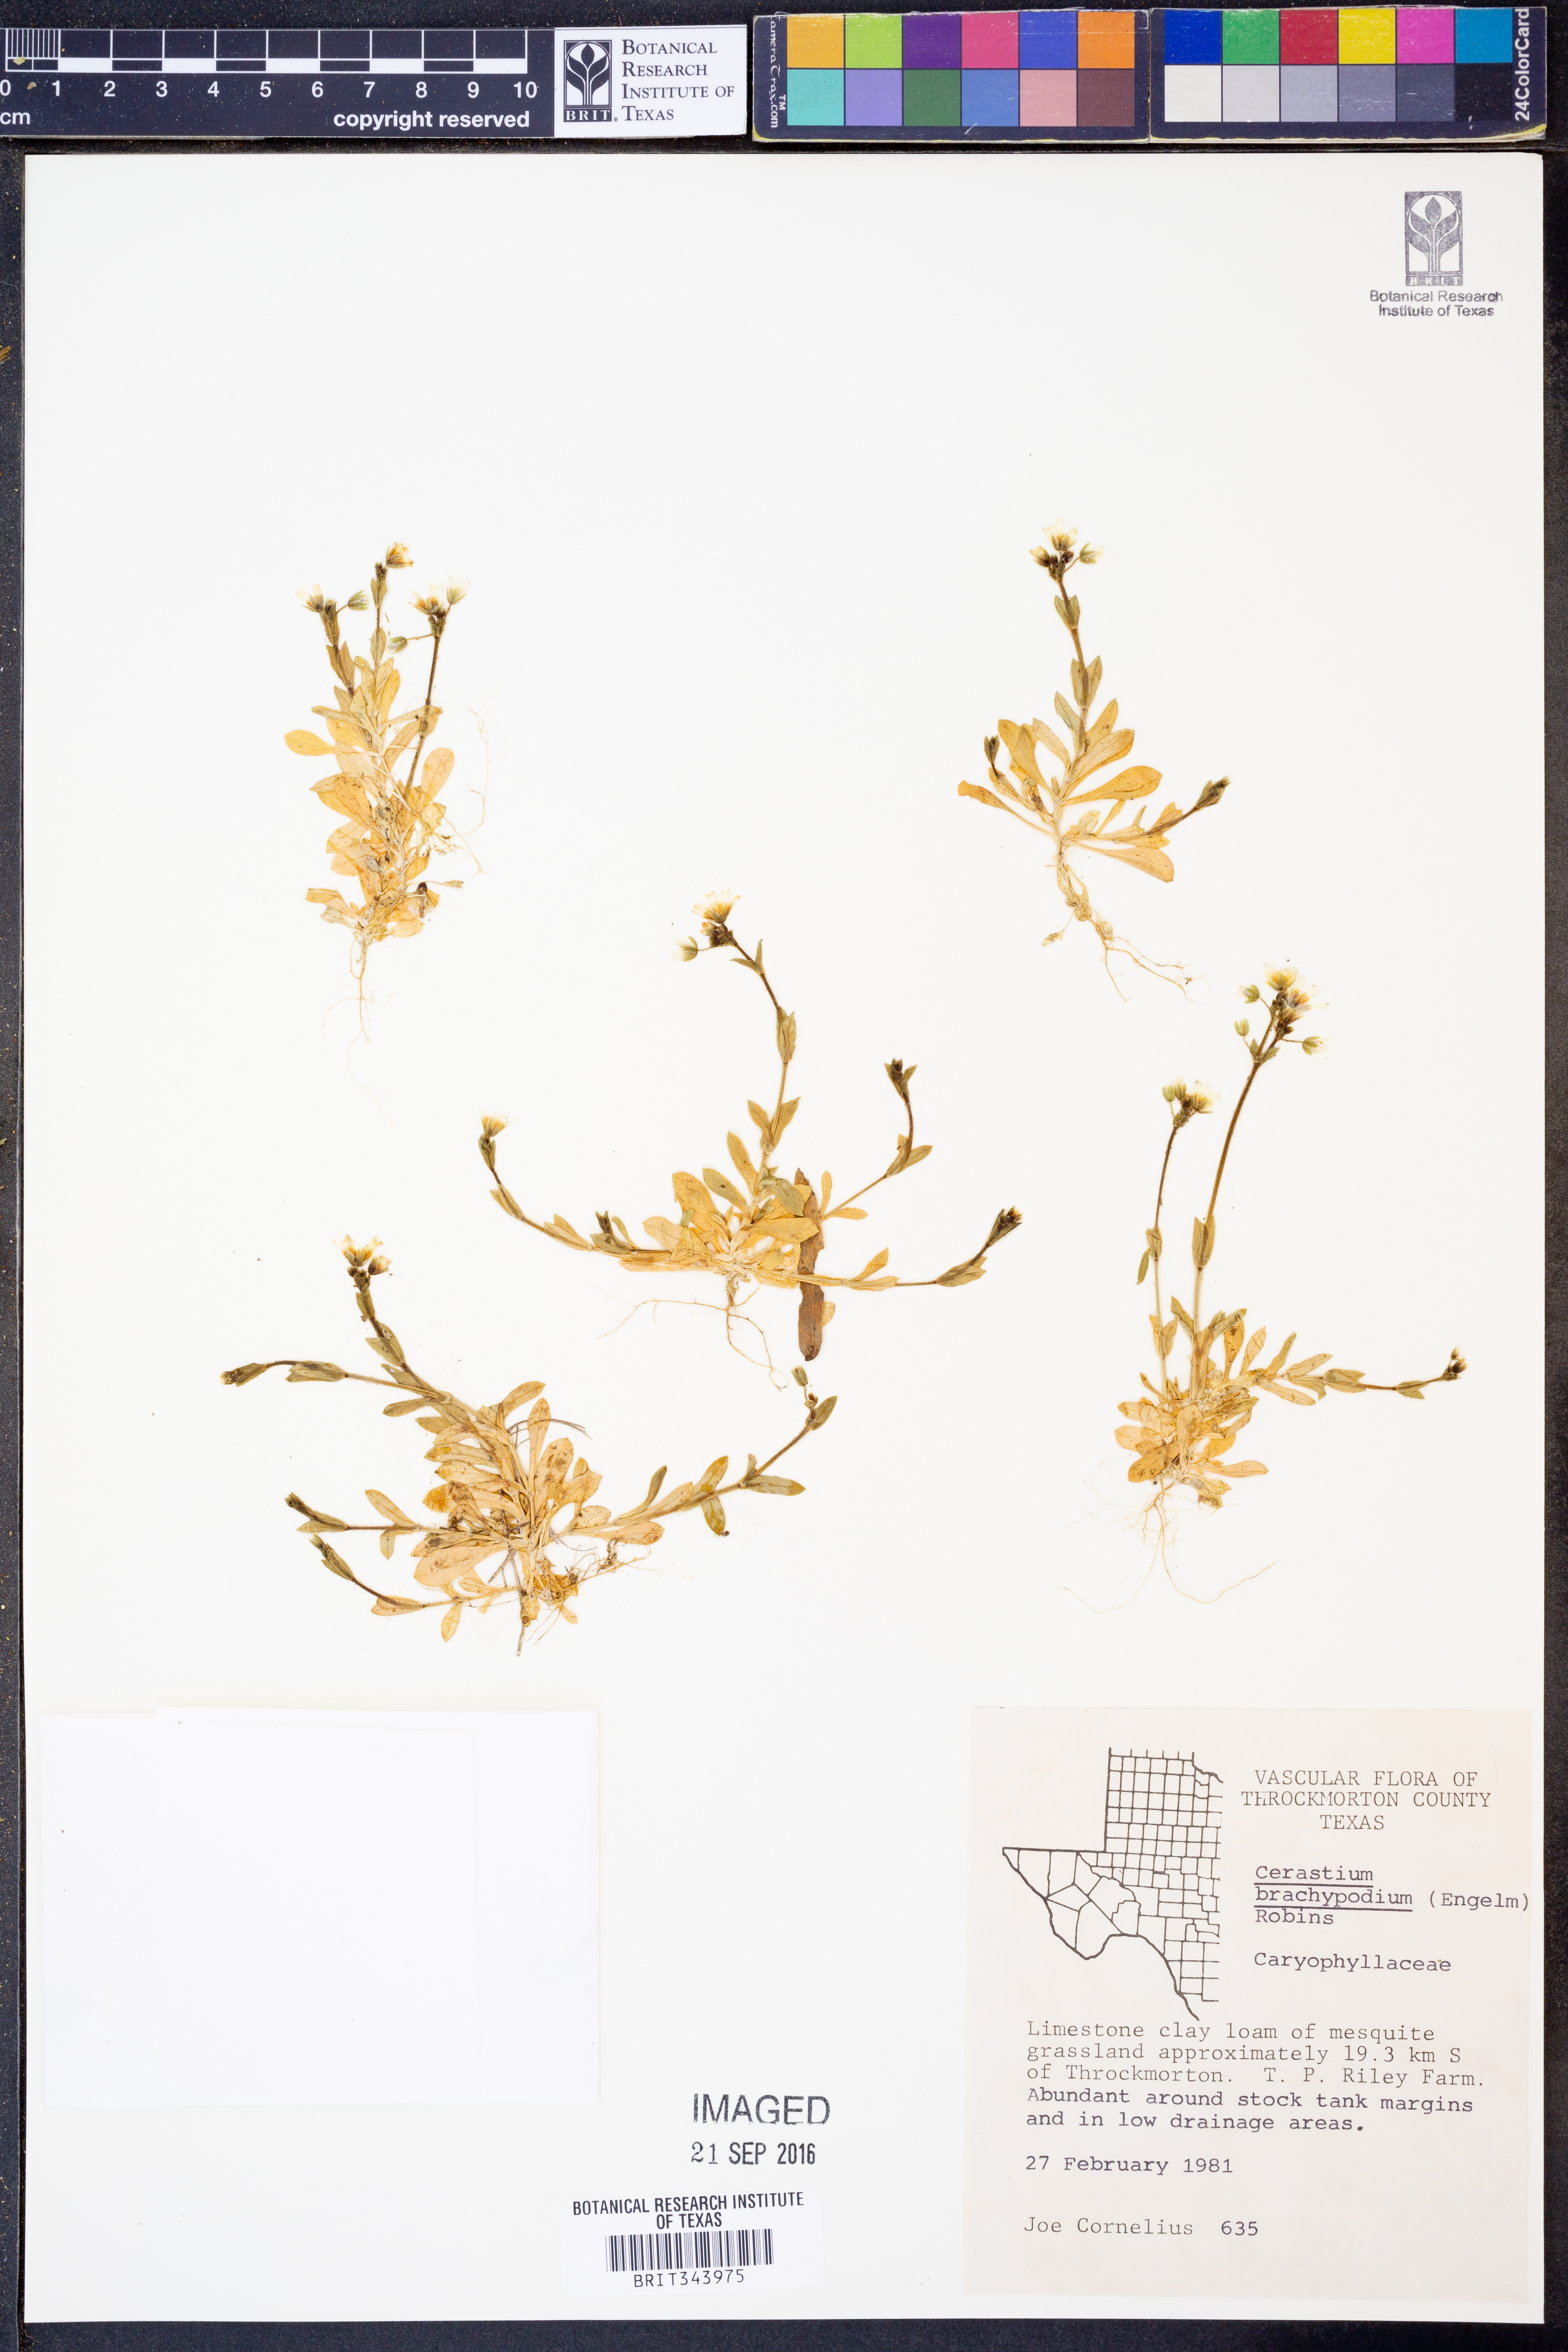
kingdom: Plantae
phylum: Tracheophyta
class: Magnoliopsida
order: Caryophyllales
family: Caryophyllaceae
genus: Cerastium
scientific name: Cerastium brachypodum
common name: Short-pedicelled nodding chickweed
